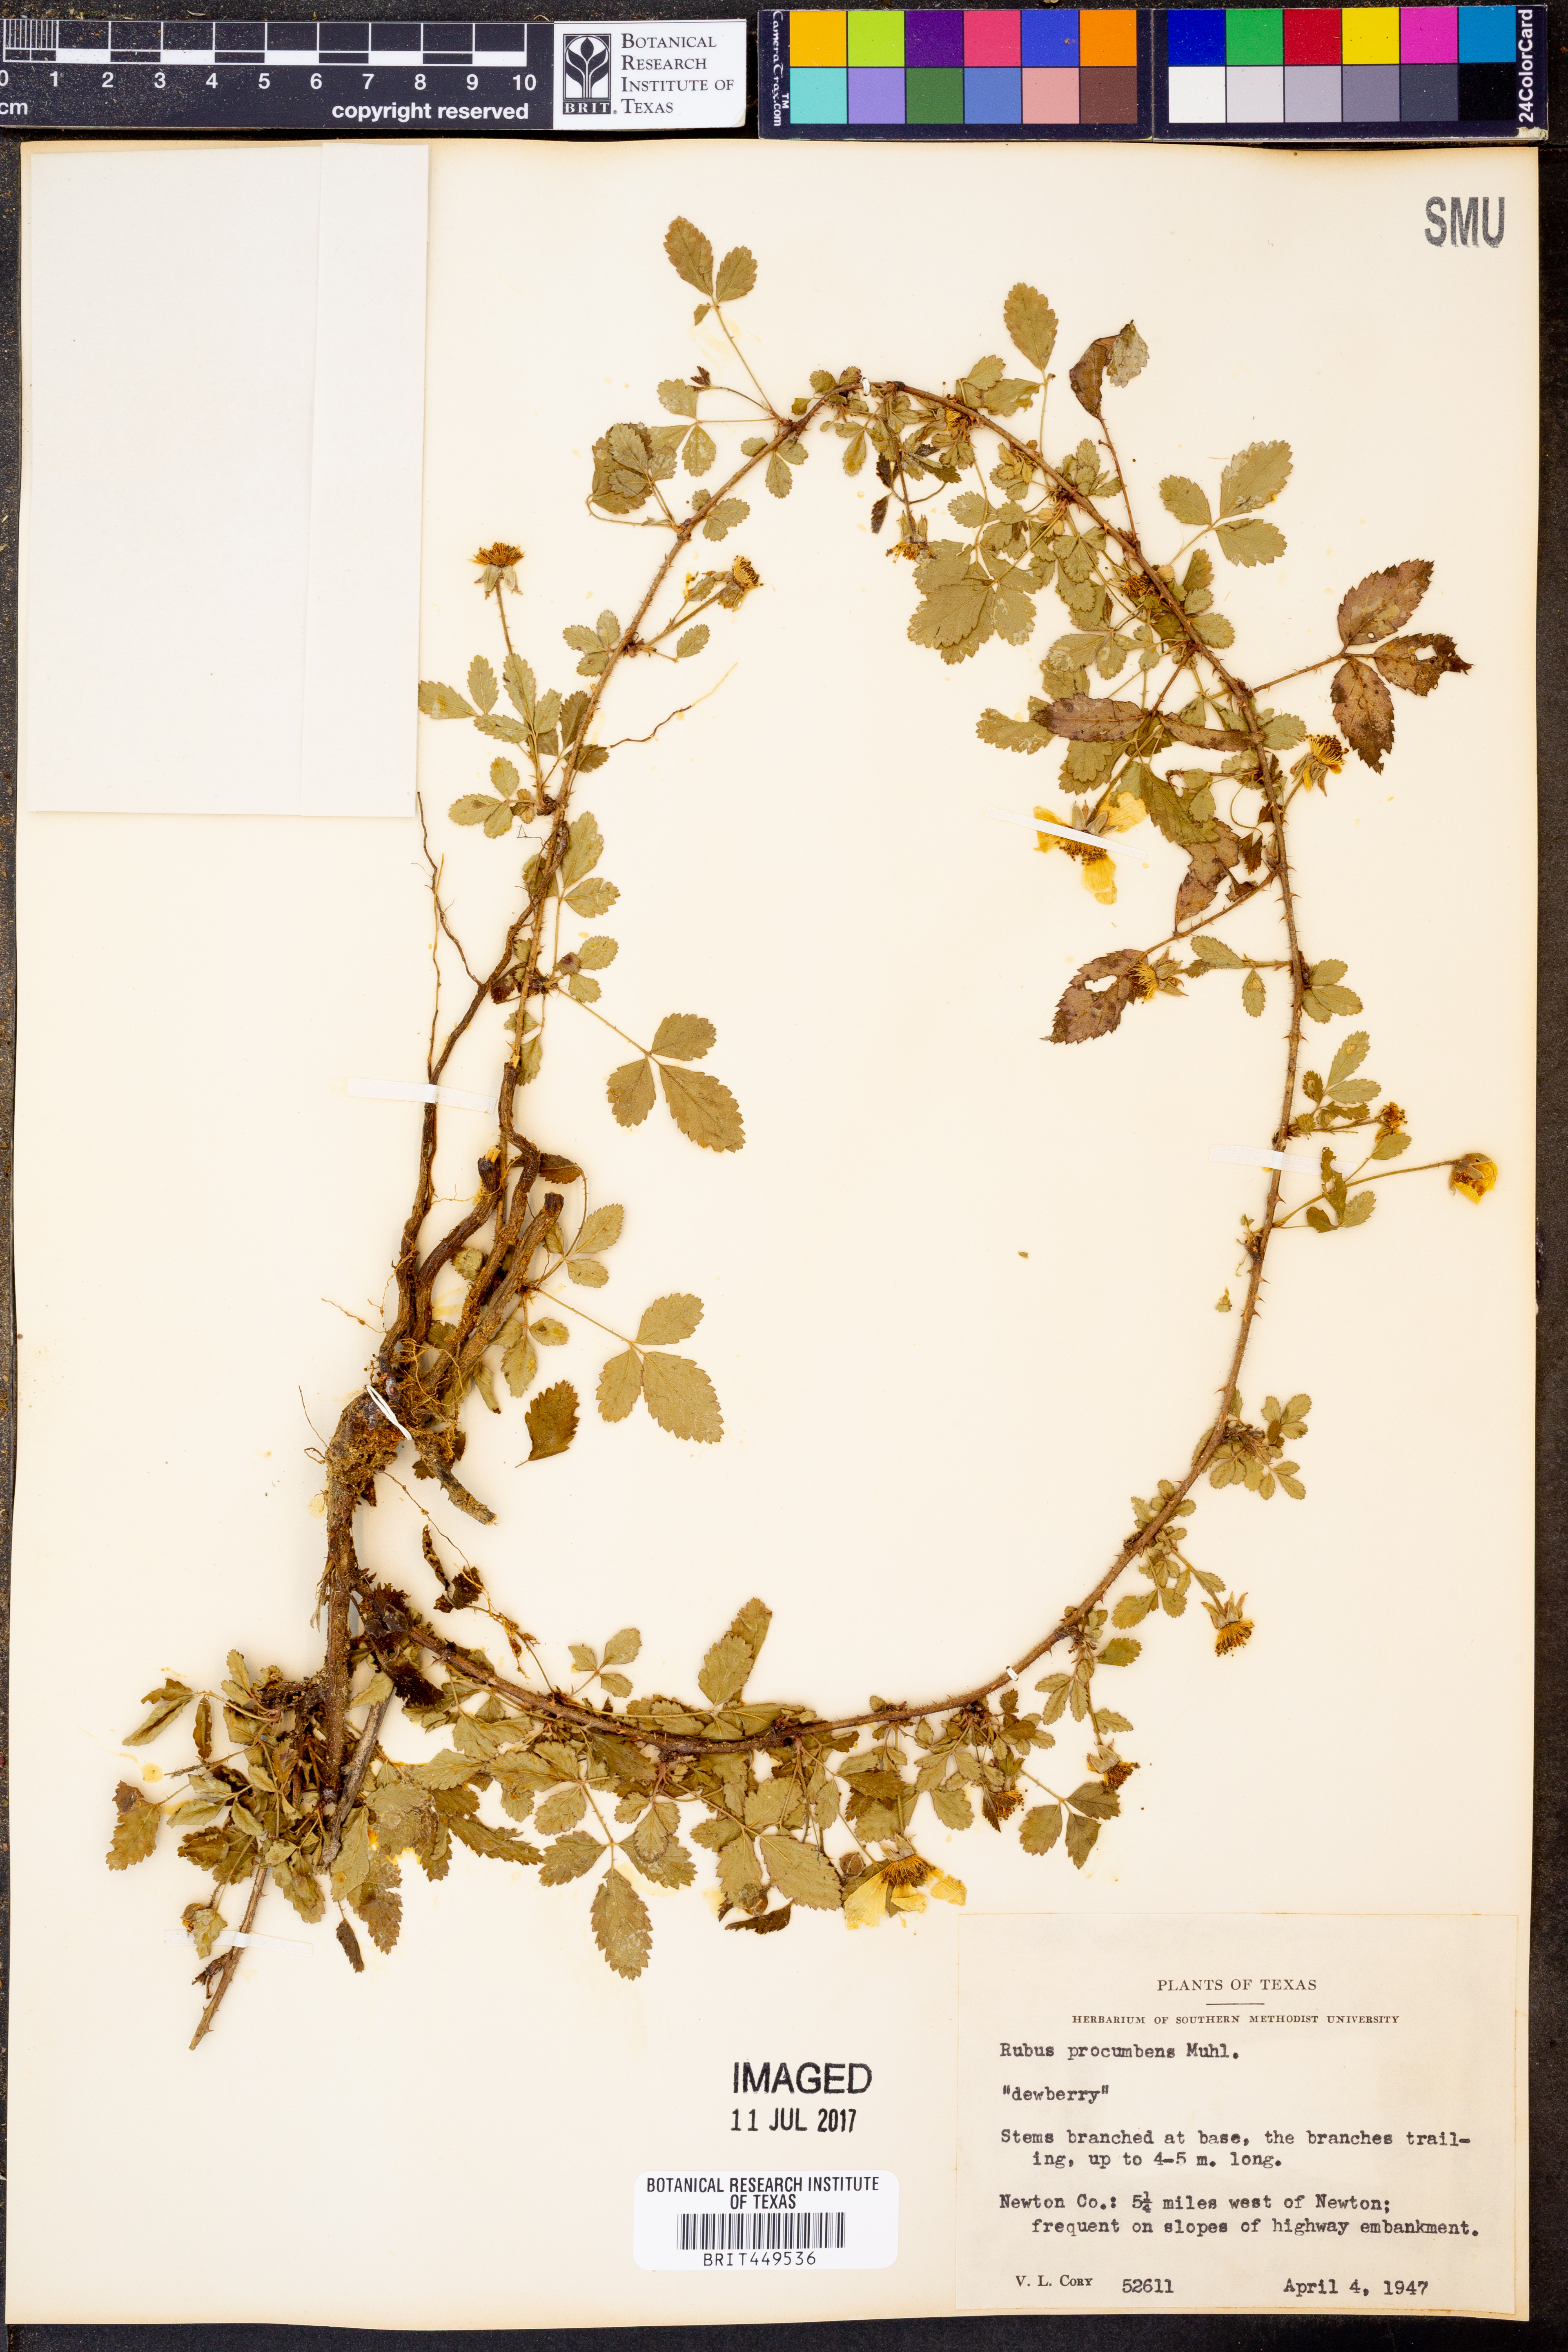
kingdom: Plantae
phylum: Tracheophyta
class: Magnoliopsida
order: Rosales
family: Rosaceae
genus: Rubus
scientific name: Rubus flagellaris
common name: American dewberry
